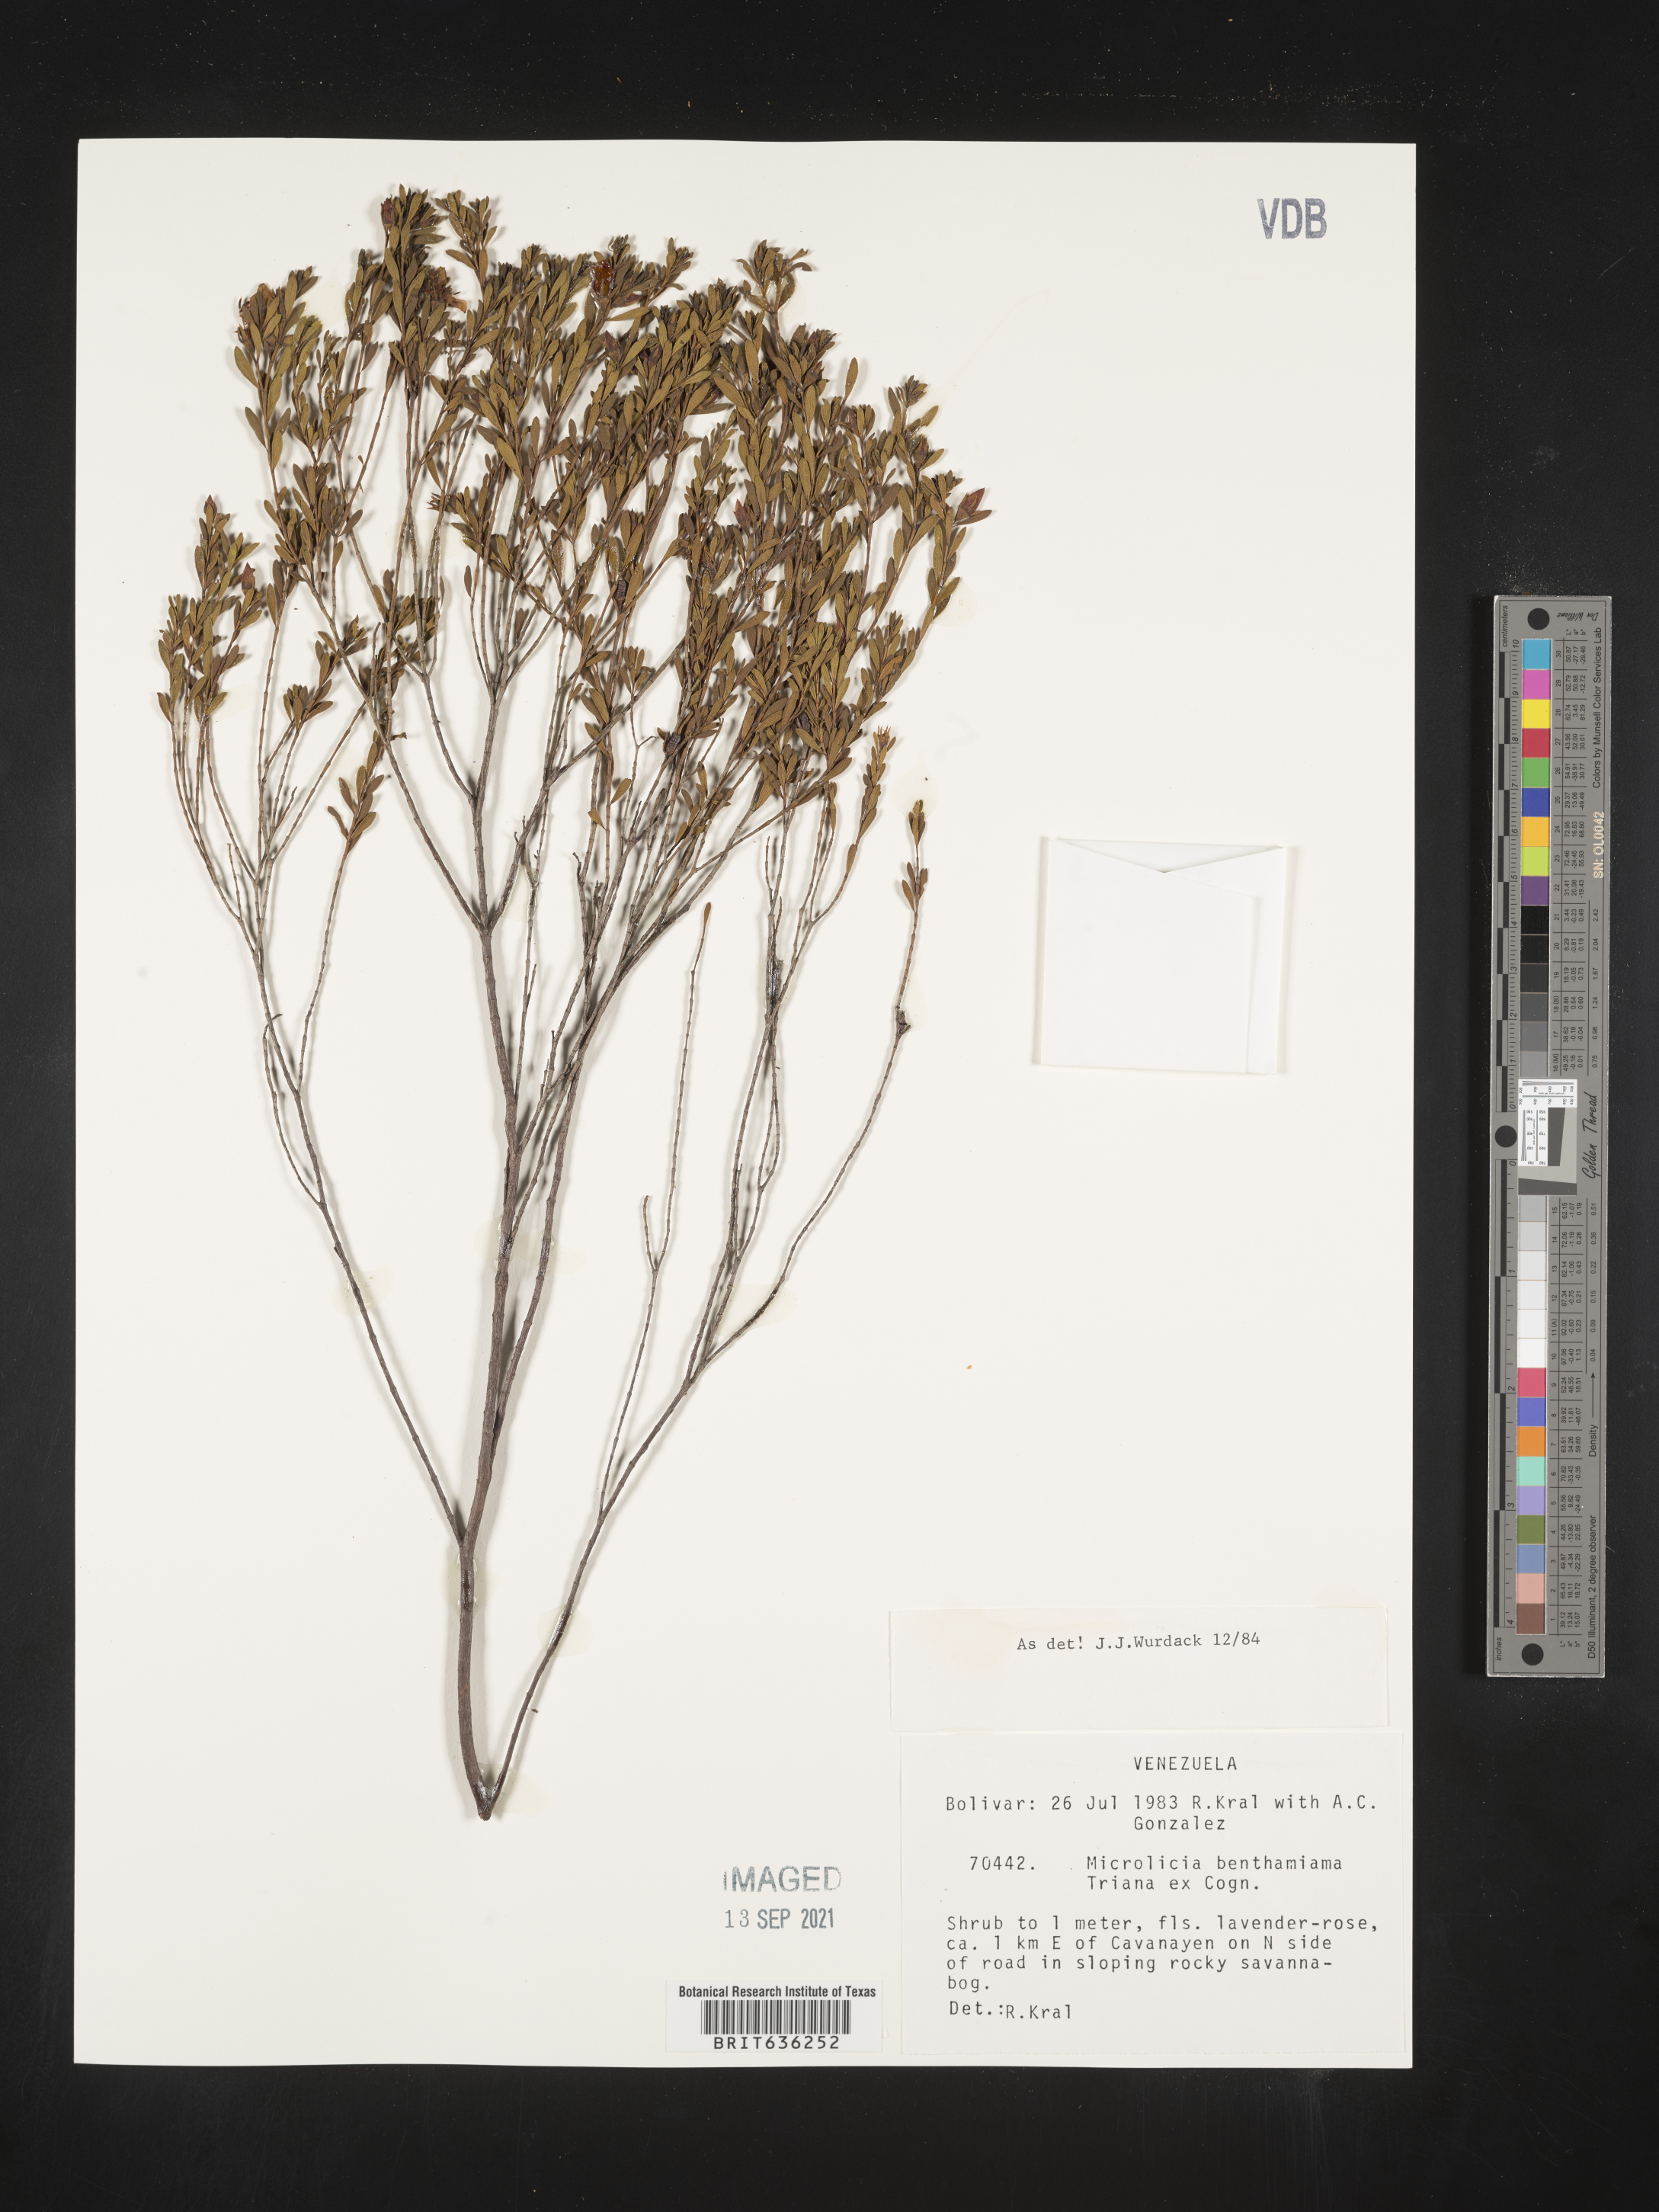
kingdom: Plantae
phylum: Tracheophyta
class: Magnoliopsida
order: Myrtales
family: Melastomataceae
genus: Microlicia
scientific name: Microlicia
